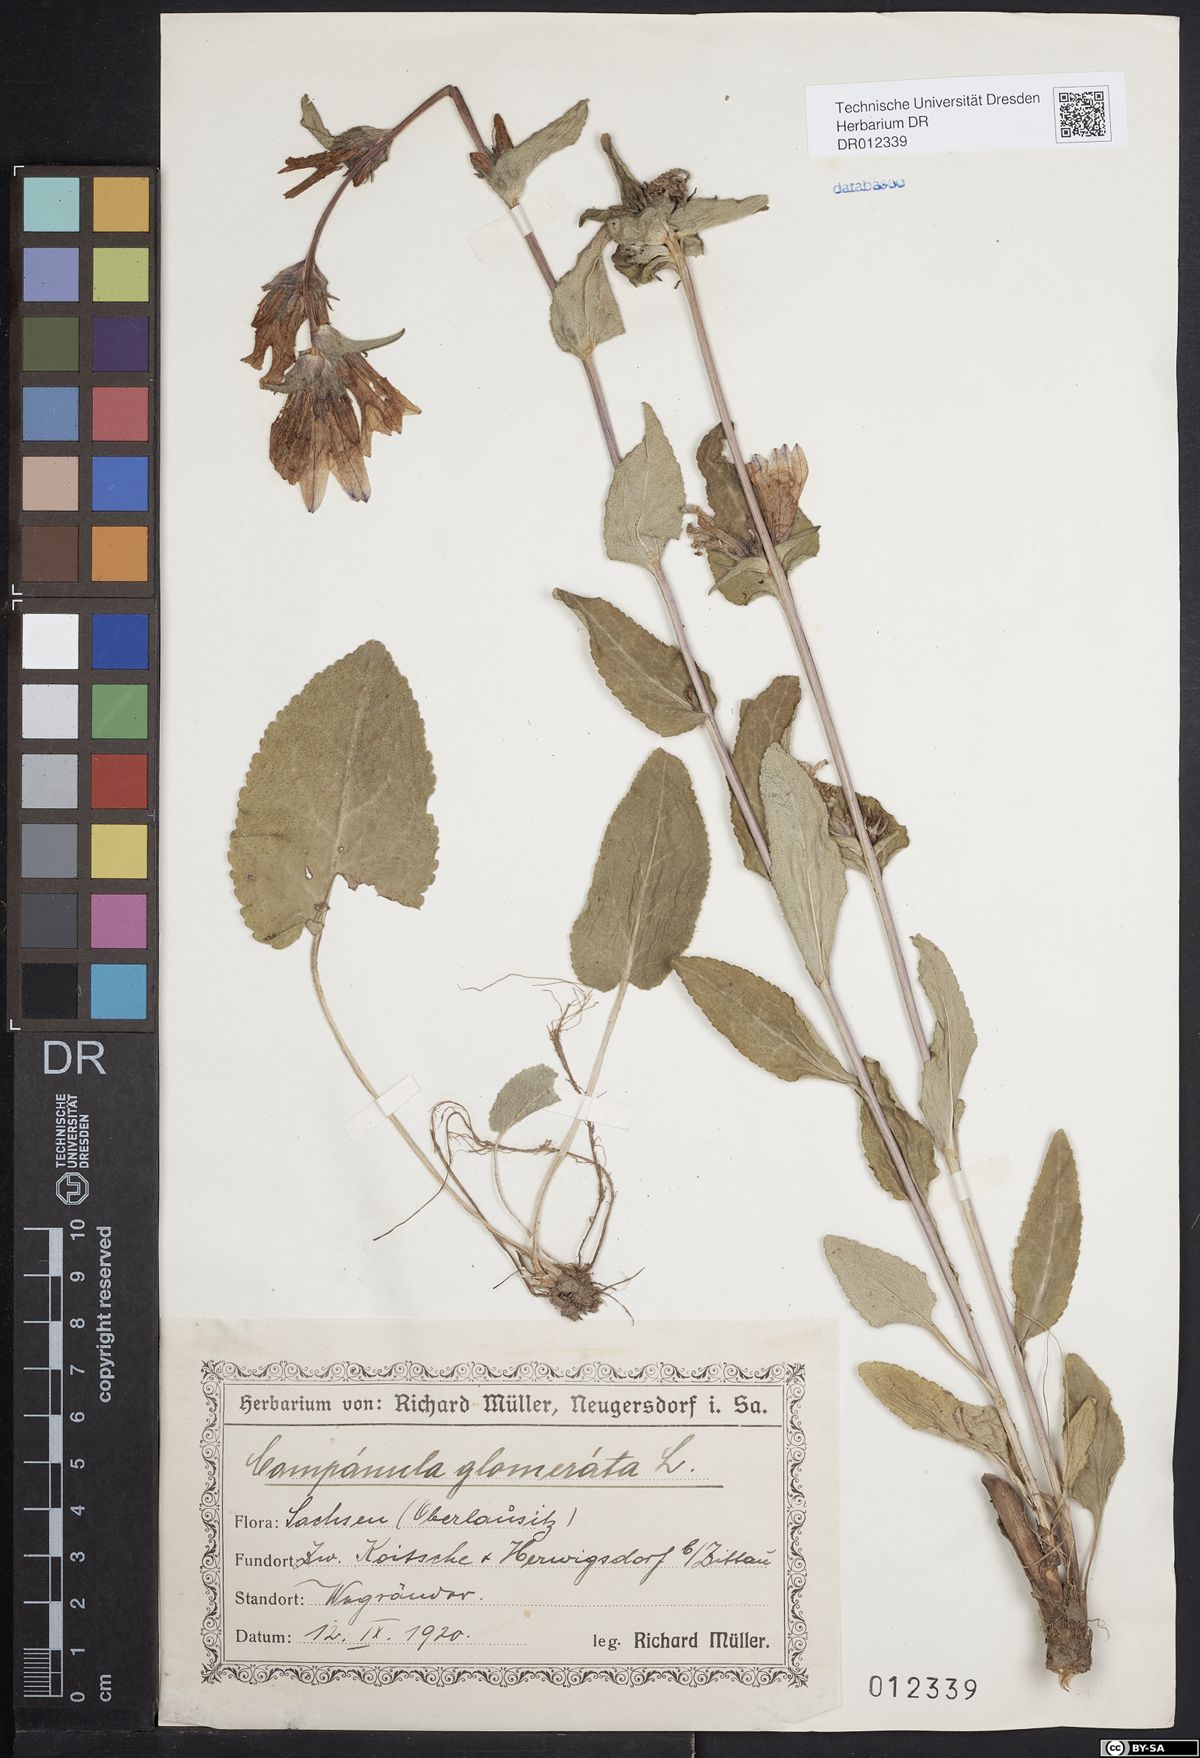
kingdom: Plantae
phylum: Tracheophyta
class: Magnoliopsida
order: Asterales
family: Campanulaceae
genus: Campanula
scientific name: Campanula glomerata
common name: Clustered bellflower
